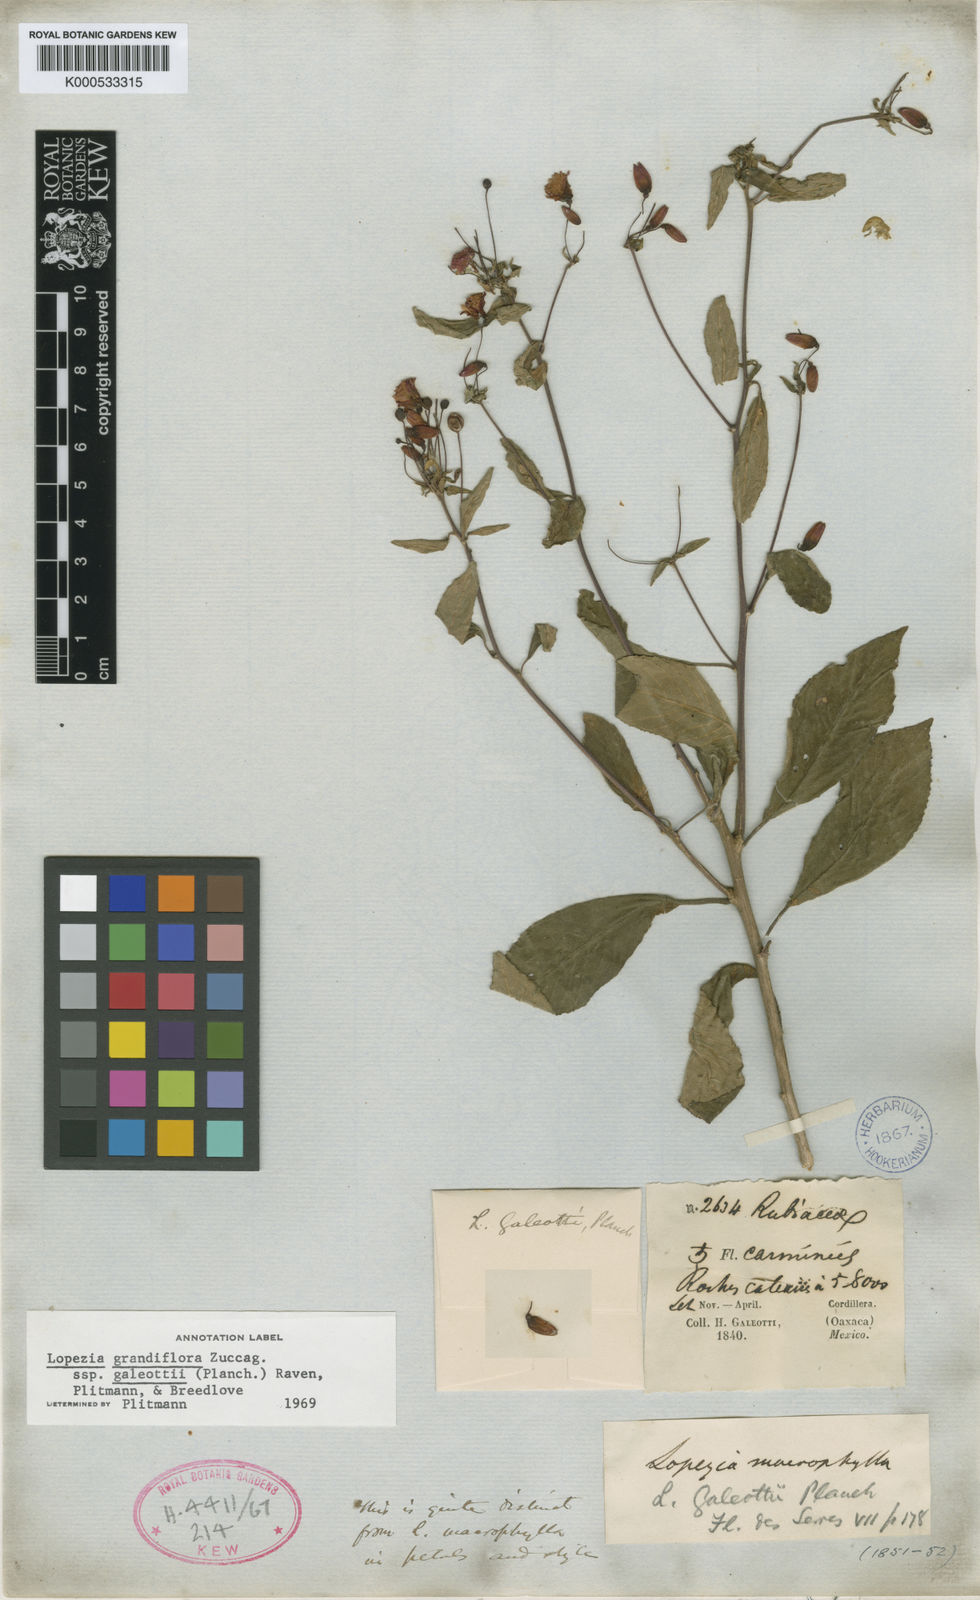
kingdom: Plantae
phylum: Tracheophyta
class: Magnoliopsida
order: Myrtales
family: Onagraceae
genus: Lopezia
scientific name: Lopezia grandiflora
